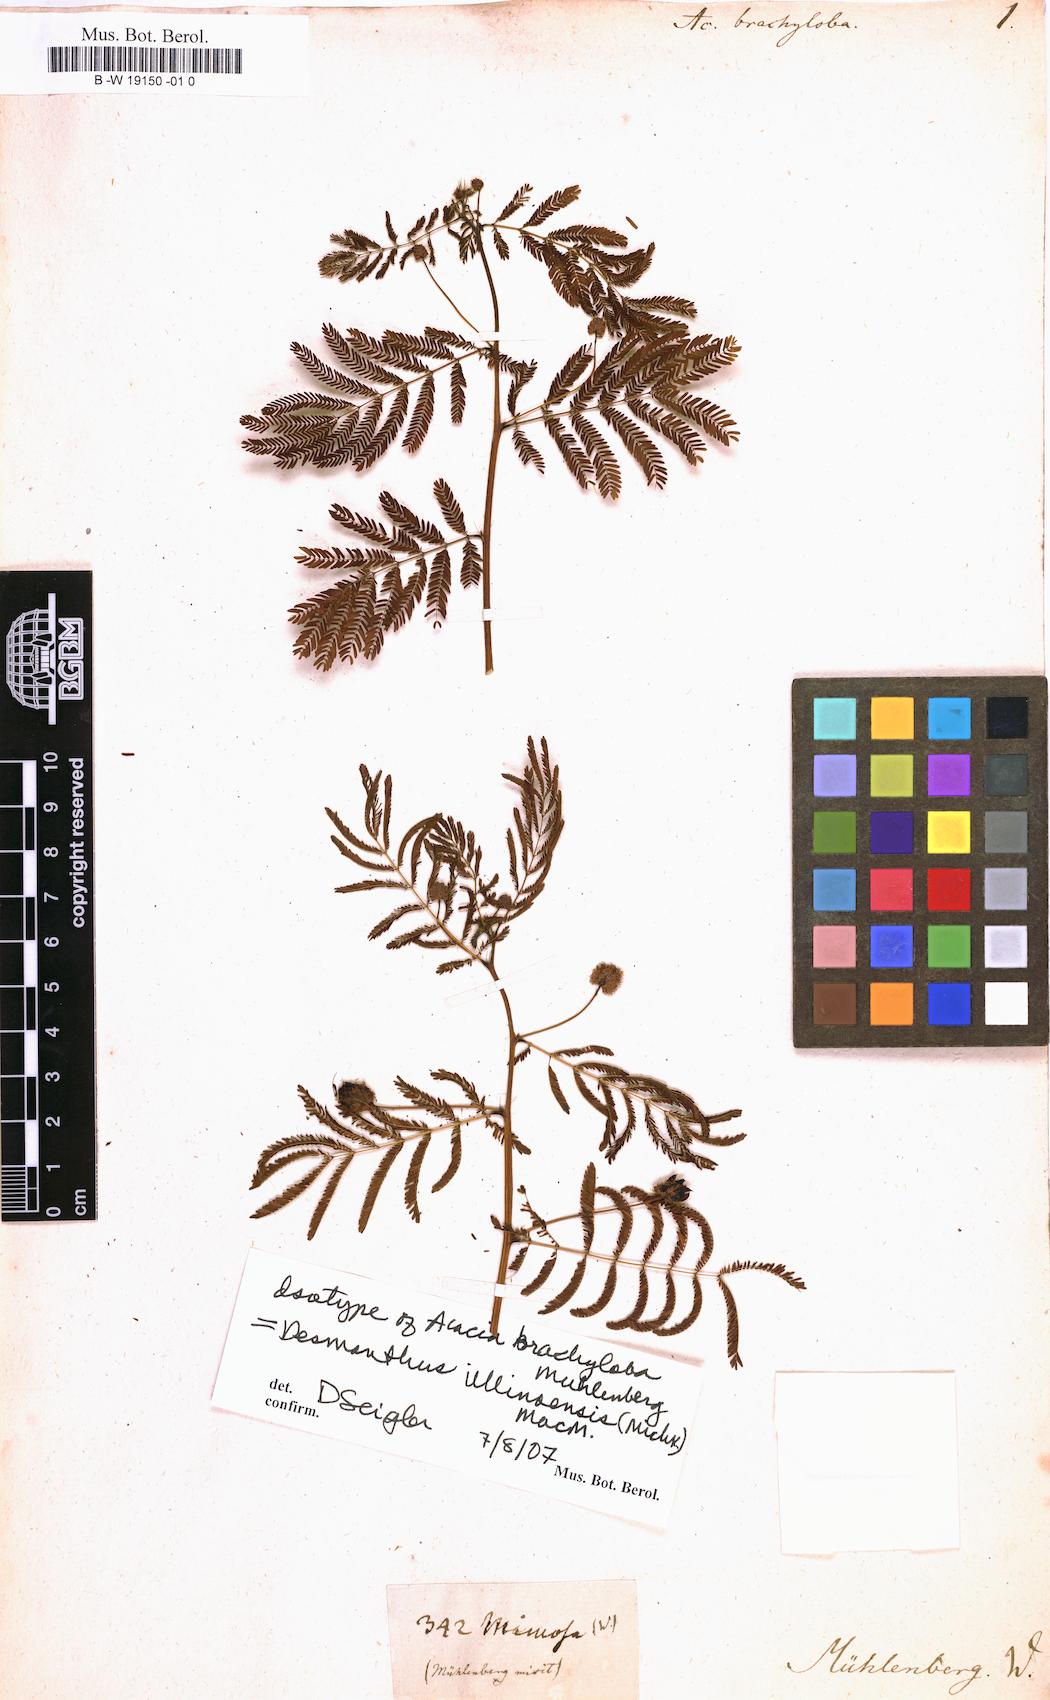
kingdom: Plantae
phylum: Tracheophyta
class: Magnoliopsida
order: Fabales
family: Fabaceae
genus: Desmanthus
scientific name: Desmanthus illinoensis
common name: Illinois bundle-flower
